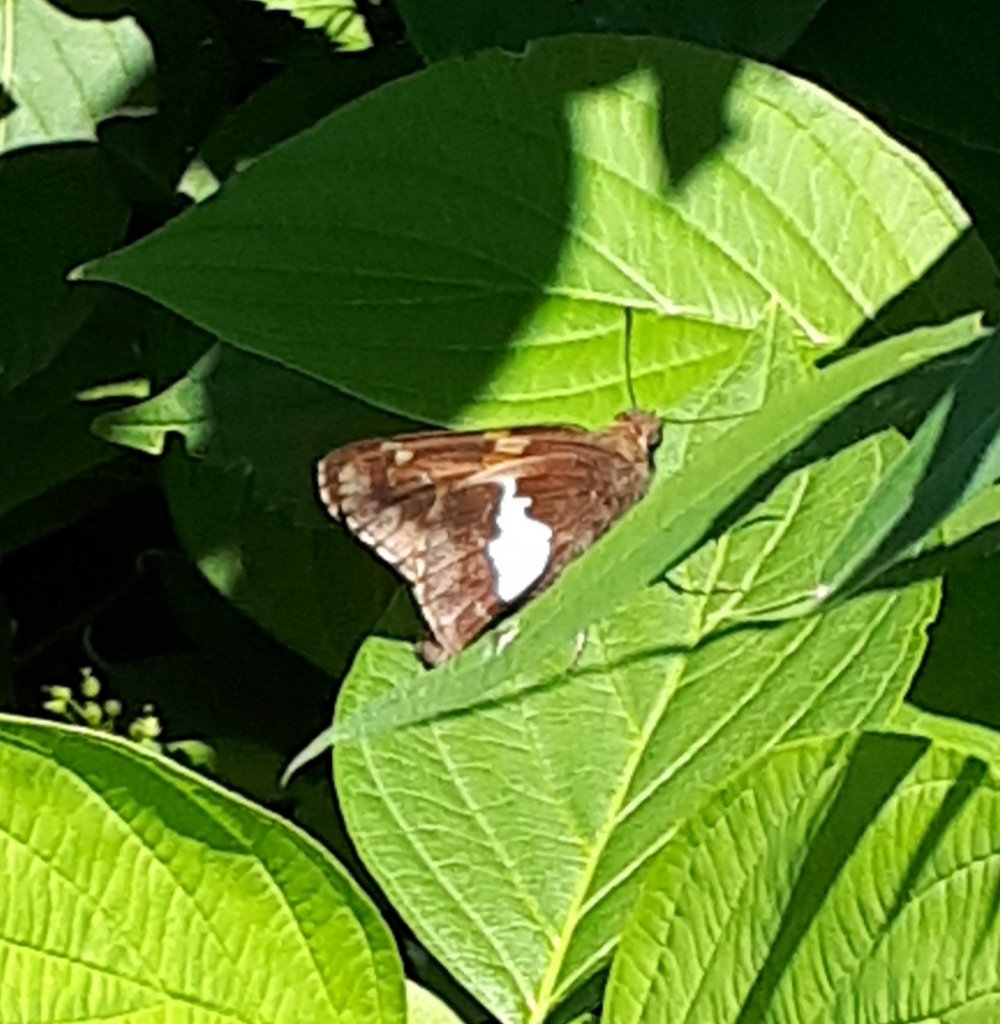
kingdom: Animalia
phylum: Arthropoda
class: Insecta
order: Lepidoptera
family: Hesperiidae
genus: Epargyreus
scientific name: Epargyreus clarus
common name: Silver-spotted Skipper
